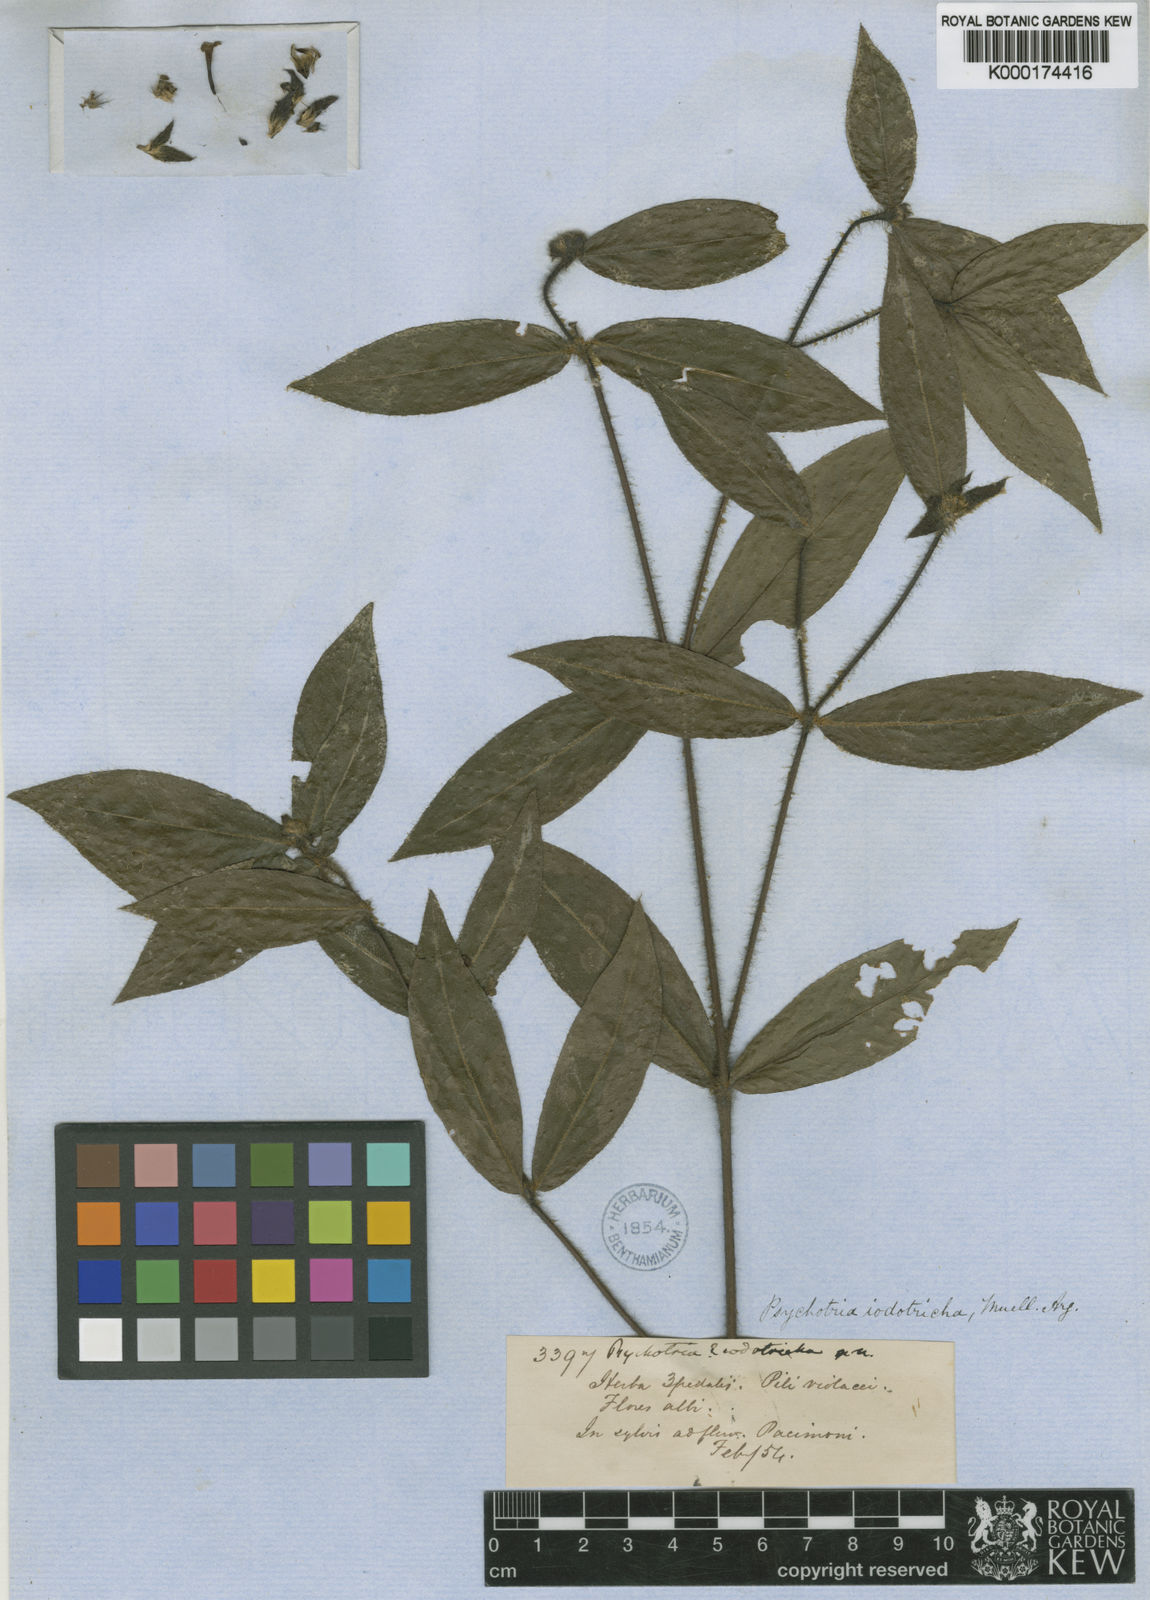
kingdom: Plantae
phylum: Tracheophyta
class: Magnoliopsida
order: Gentianales
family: Rubiaceae
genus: Psychotria
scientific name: Psychotria
